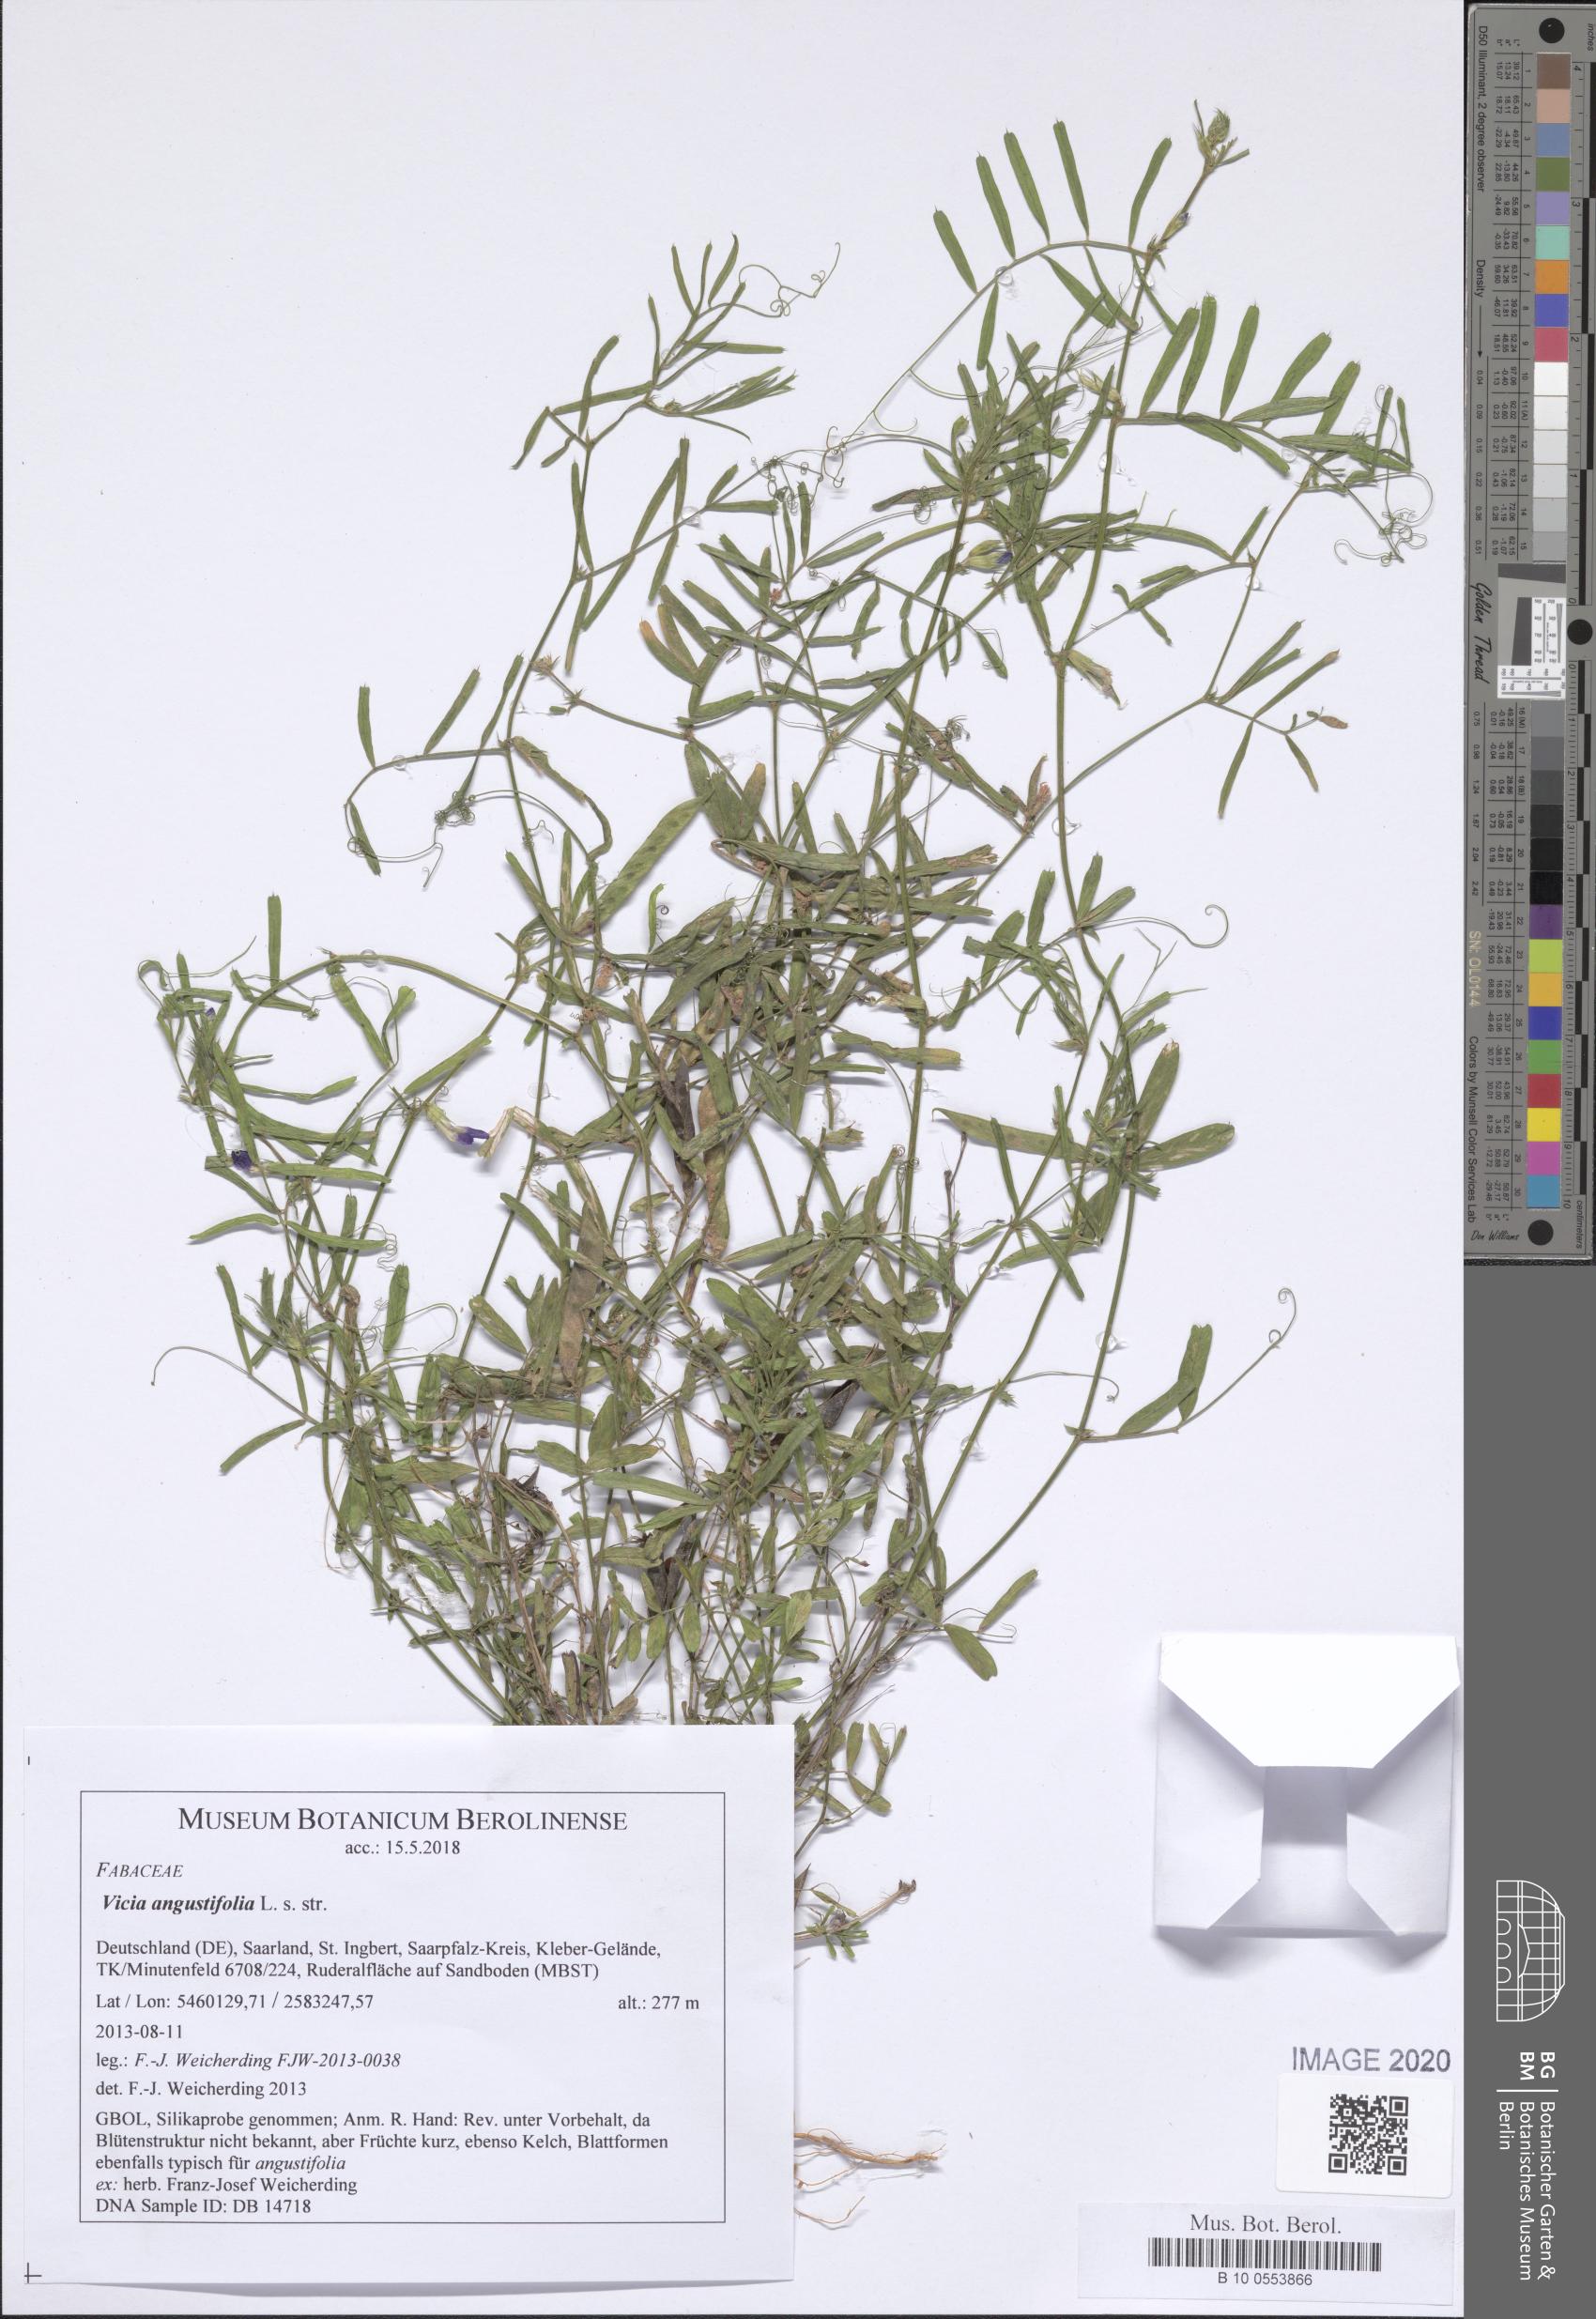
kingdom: Plantae
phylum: Tracheophyta
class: Magnoliopsida
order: Fabales
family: Fabaceae
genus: Vicia
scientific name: Vicia sativa
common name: Garden vetch
